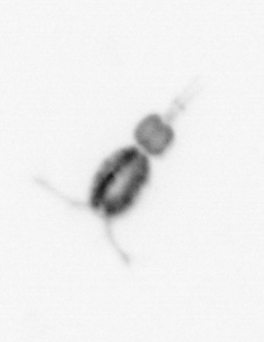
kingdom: Animalia
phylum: Arthropoda
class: Copepoda
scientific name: Copepoda
